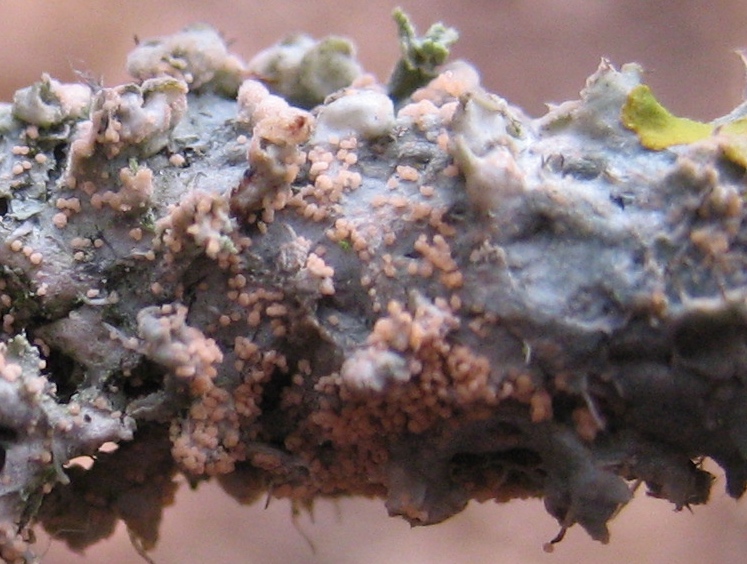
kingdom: Fungi
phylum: Basidiomycota
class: Agaricomycetes
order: Corticiales
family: Corticiaceae
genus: Erythricium
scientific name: Erythricium aurantiacum
